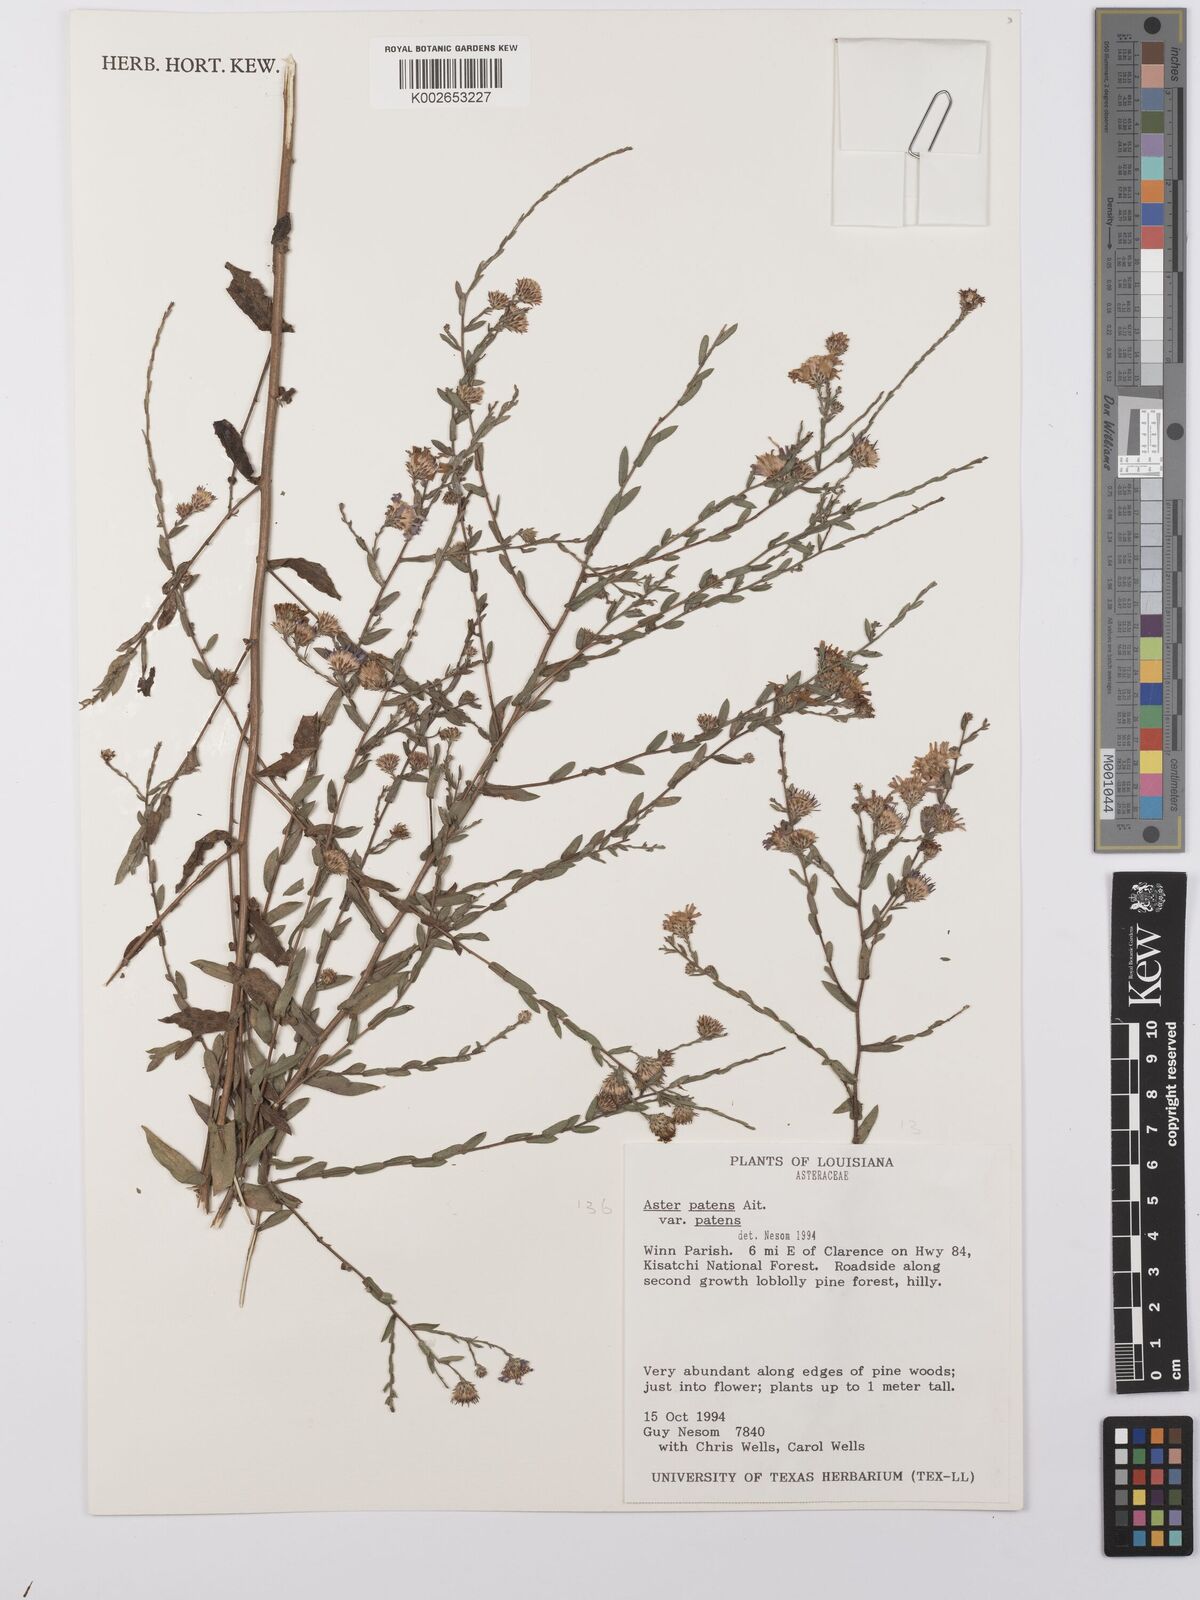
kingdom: Plantae
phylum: Tracheophyta
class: Magnoliopsida
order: Asterales
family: Asteraceae
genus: Symphyotrichum
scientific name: Symphyotrichum patens
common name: Late purple aster
